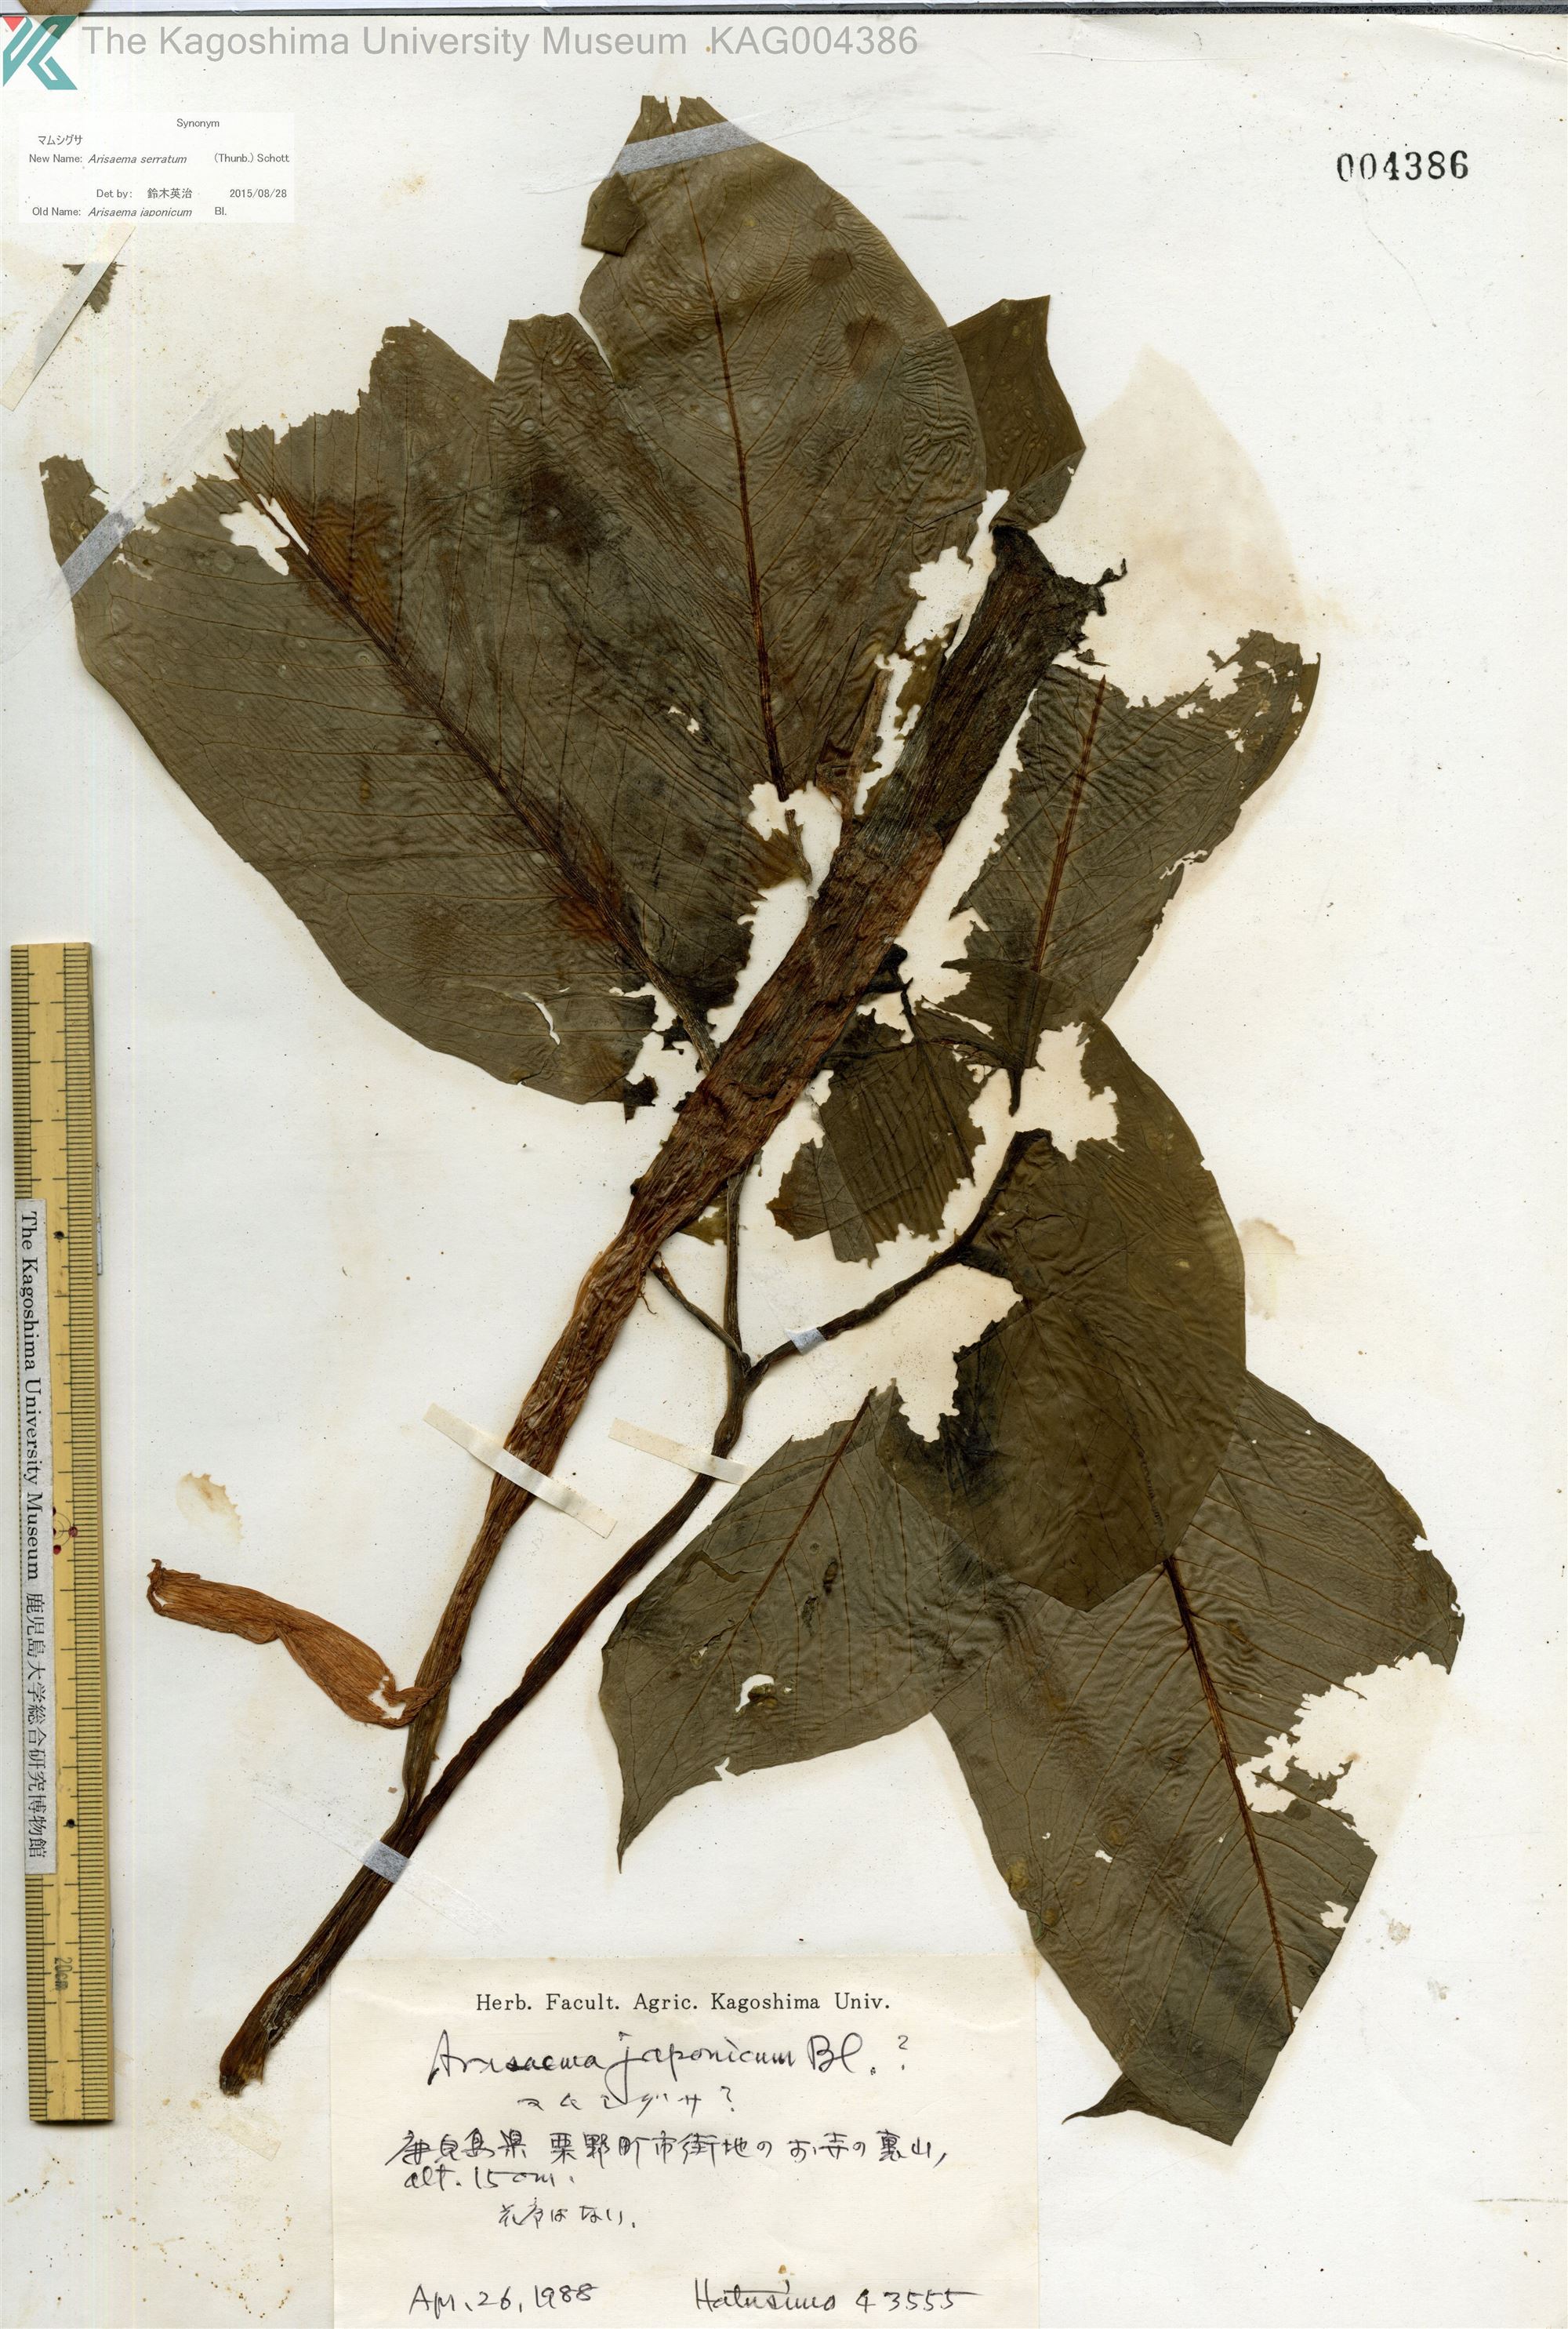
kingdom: Plantae
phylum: Tracheophyta
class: Liliopsida
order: Alismatales
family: Araceae
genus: Arisaema
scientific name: Arisaema serratum
